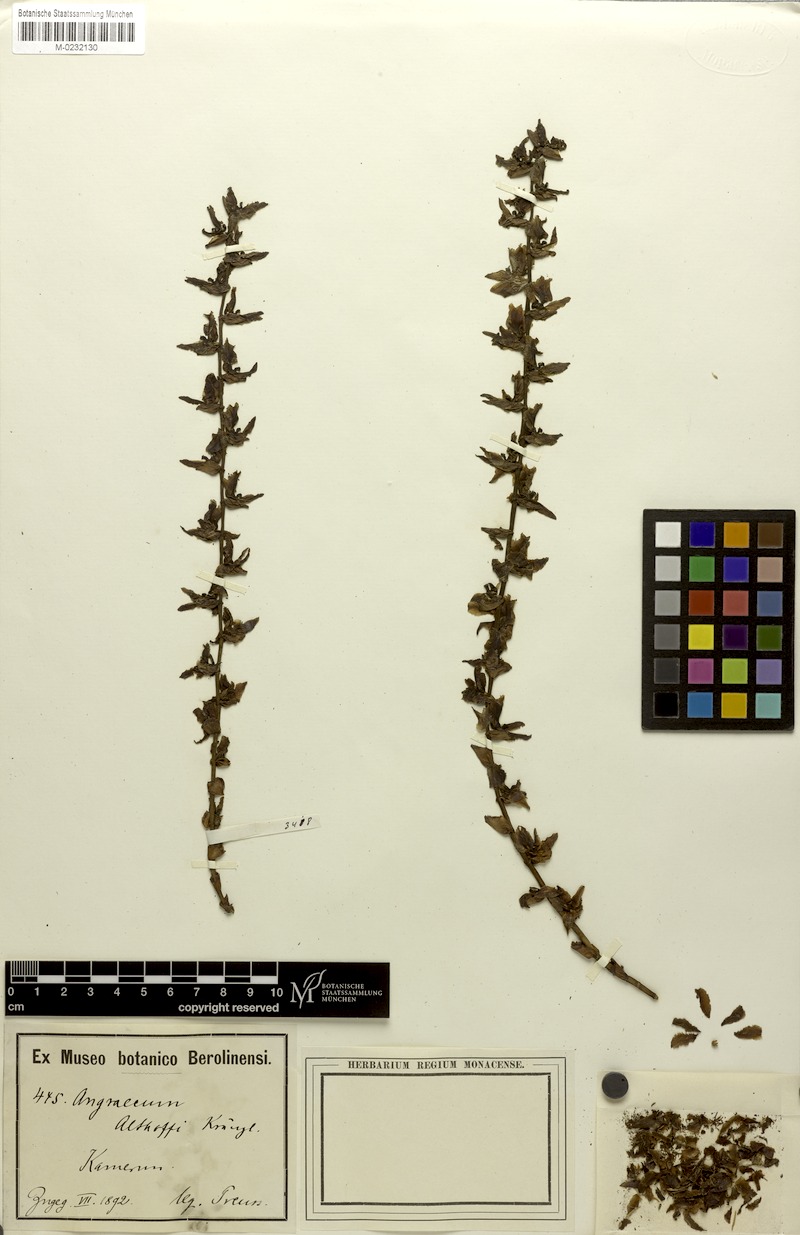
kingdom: Plantae
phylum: Tracheophyta
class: Liliopsida
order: Asparagales
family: Orchidaceae
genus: Diaphananthe
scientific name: Diaphananthe pellucida
